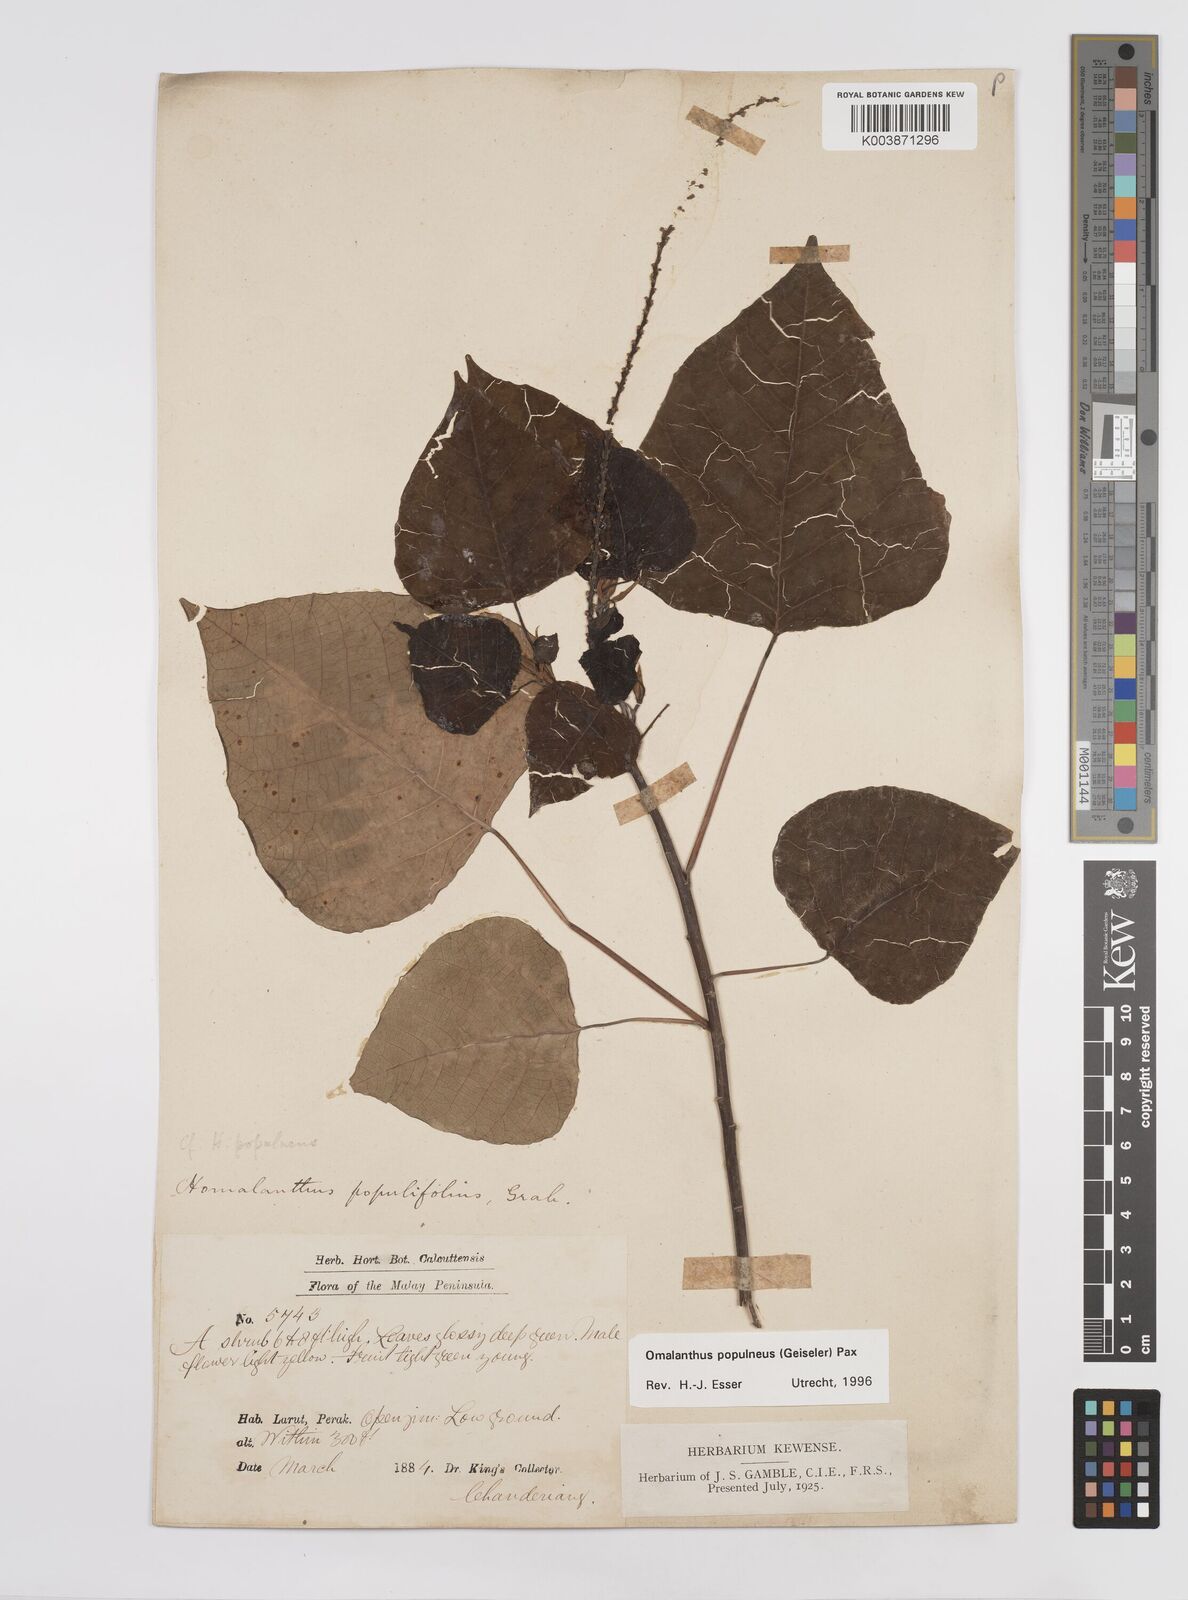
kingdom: Plantae
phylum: Tracheophyta
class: Magnoliopsida
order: Malpighiales
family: Euphorbiaceae
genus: Homalanthus
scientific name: Homalanthus populneus
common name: Spurge
